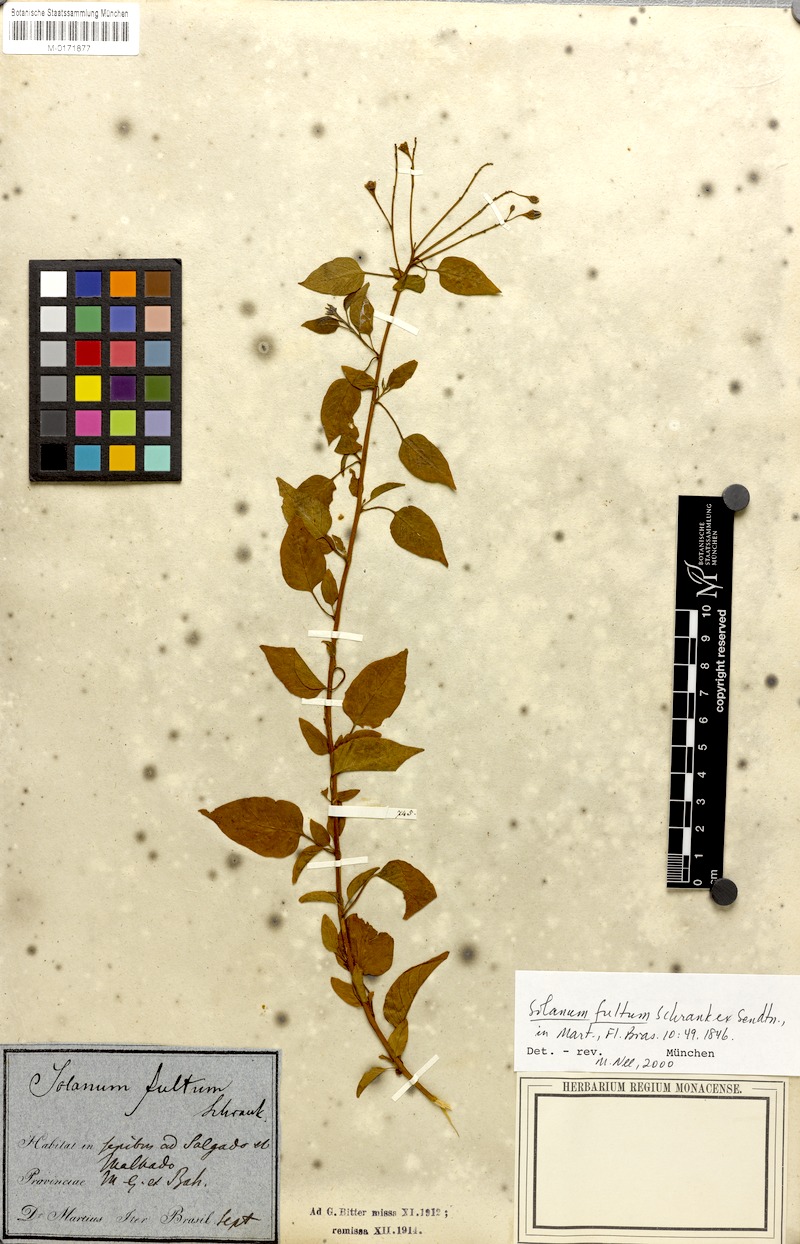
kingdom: Plantae
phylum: Tracheophyta
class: Magnoliopsida
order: Solanales
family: Solanaceae
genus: Solanum
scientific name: Solanum fultum
